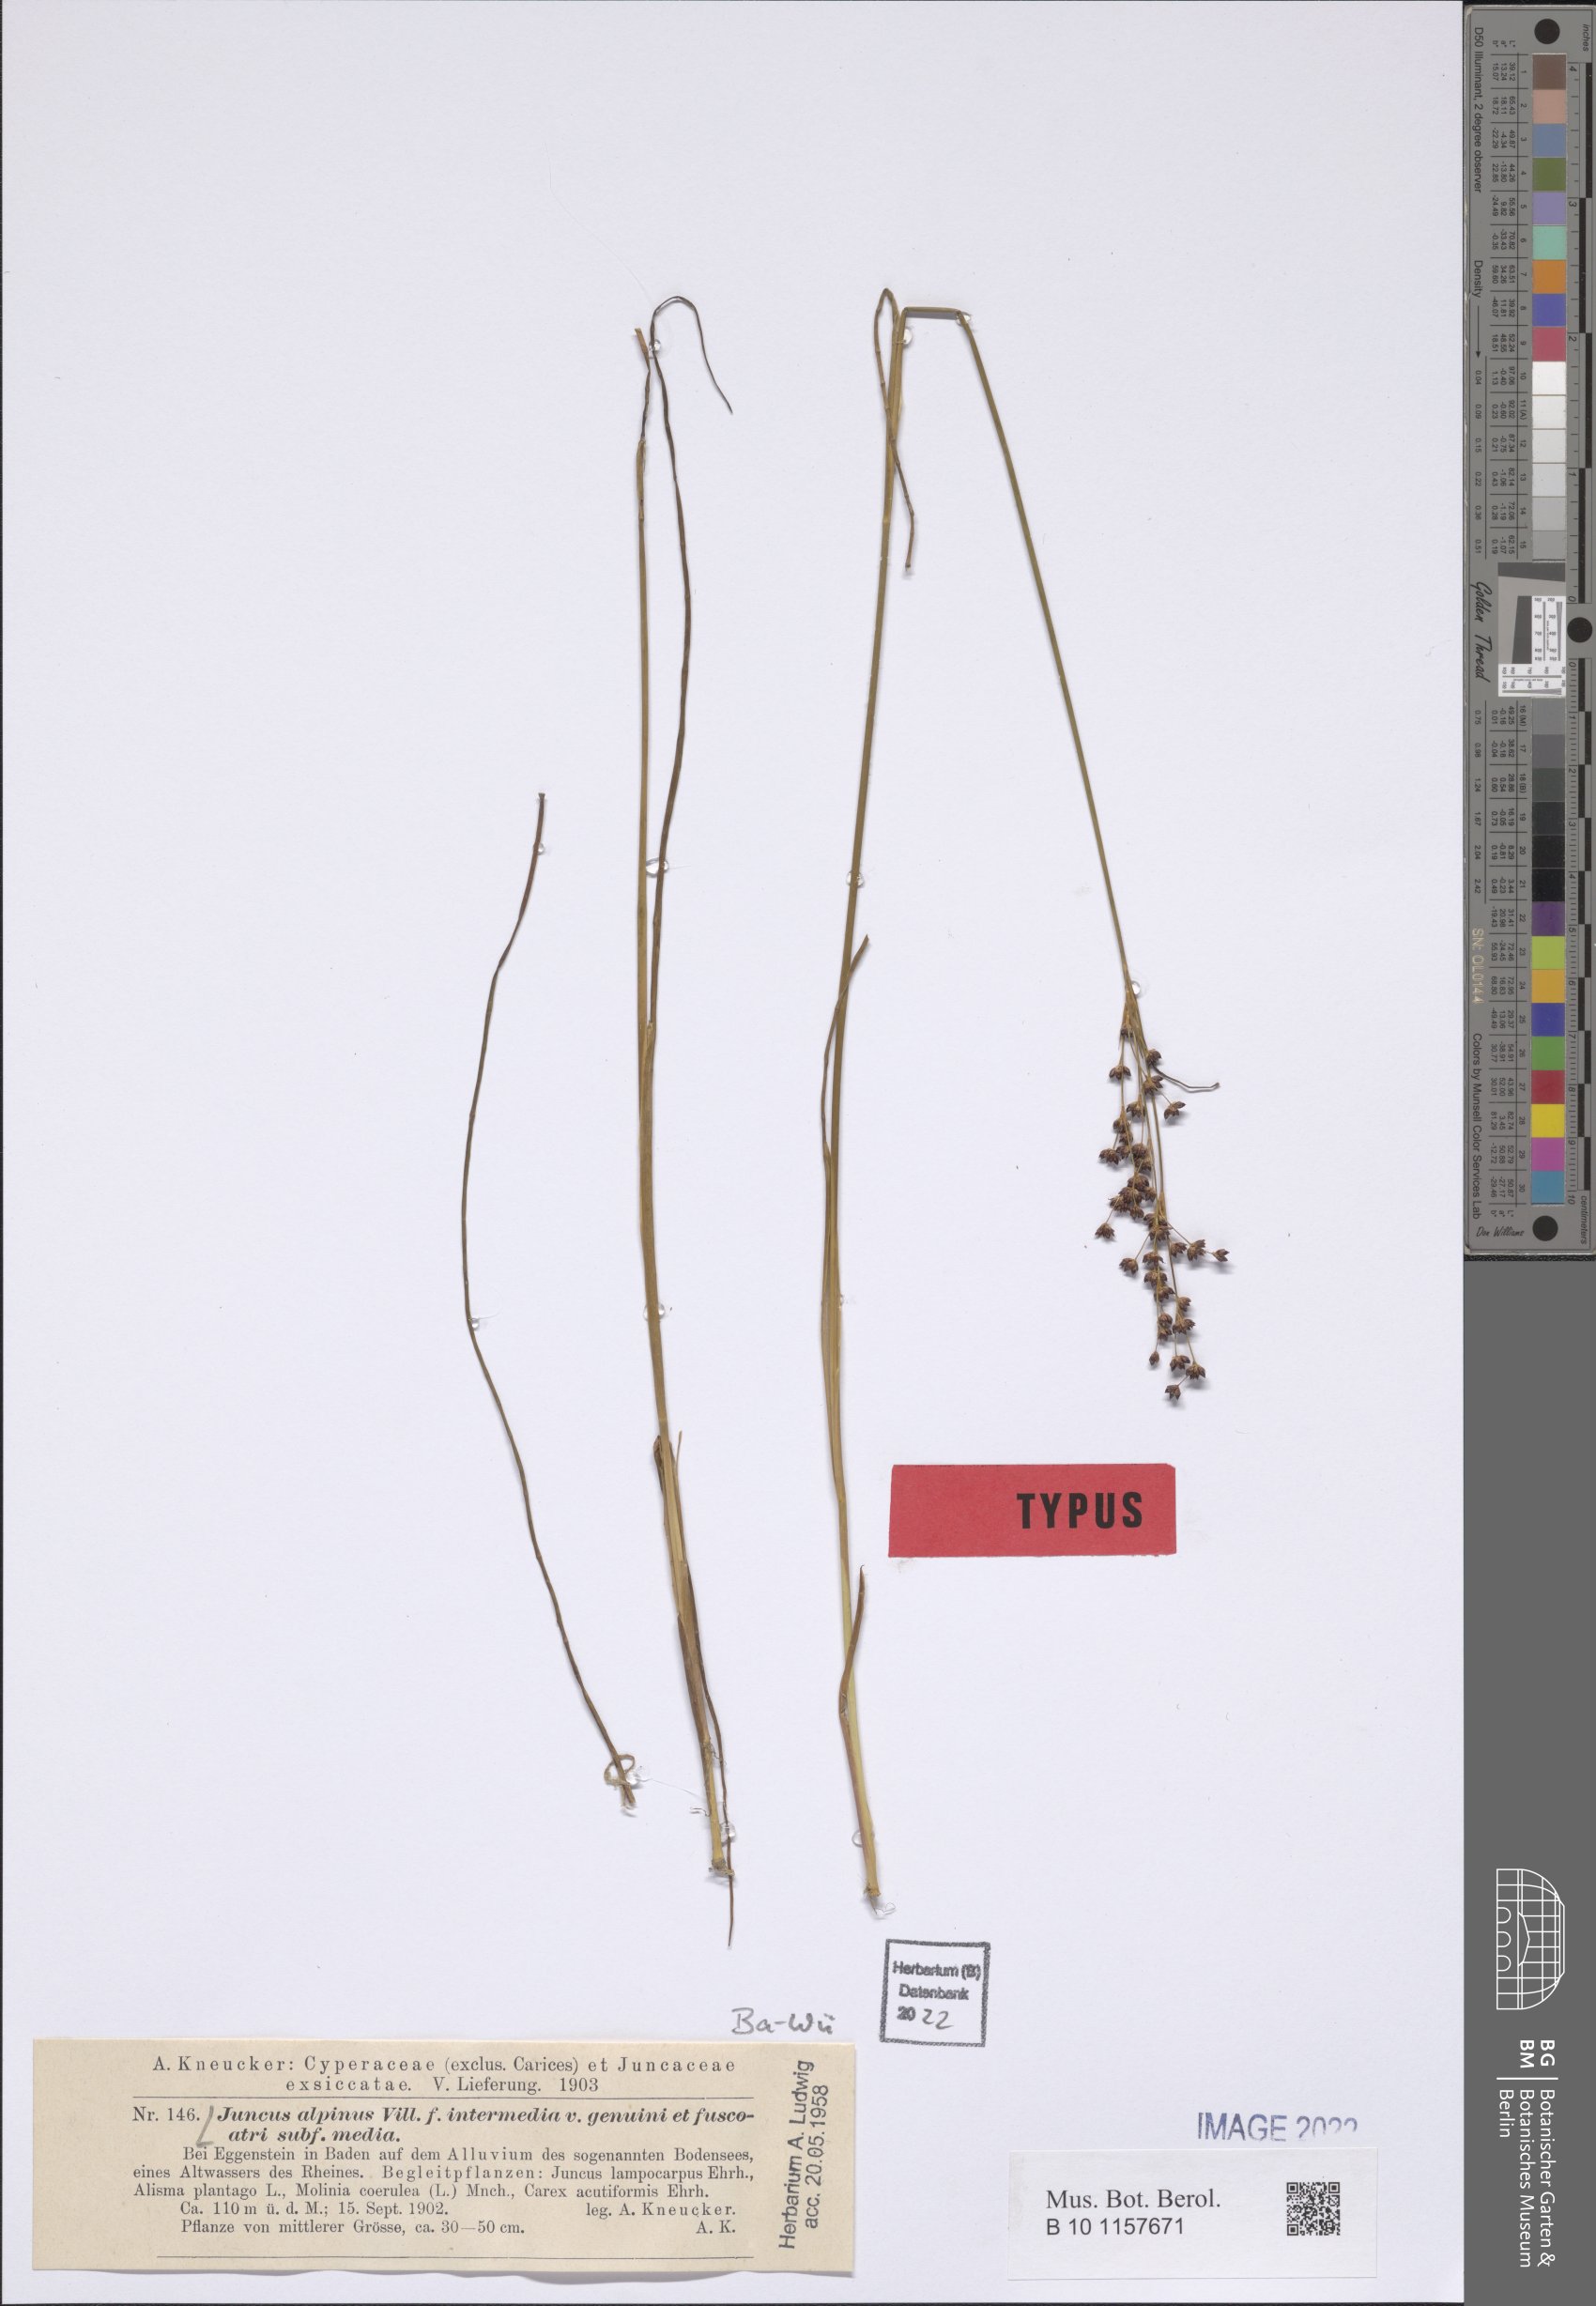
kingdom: Plantae
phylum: Tracheophyta
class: Liliopsida
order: Poales
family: Juncaceae
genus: Juncus
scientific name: Juncus alpinus
